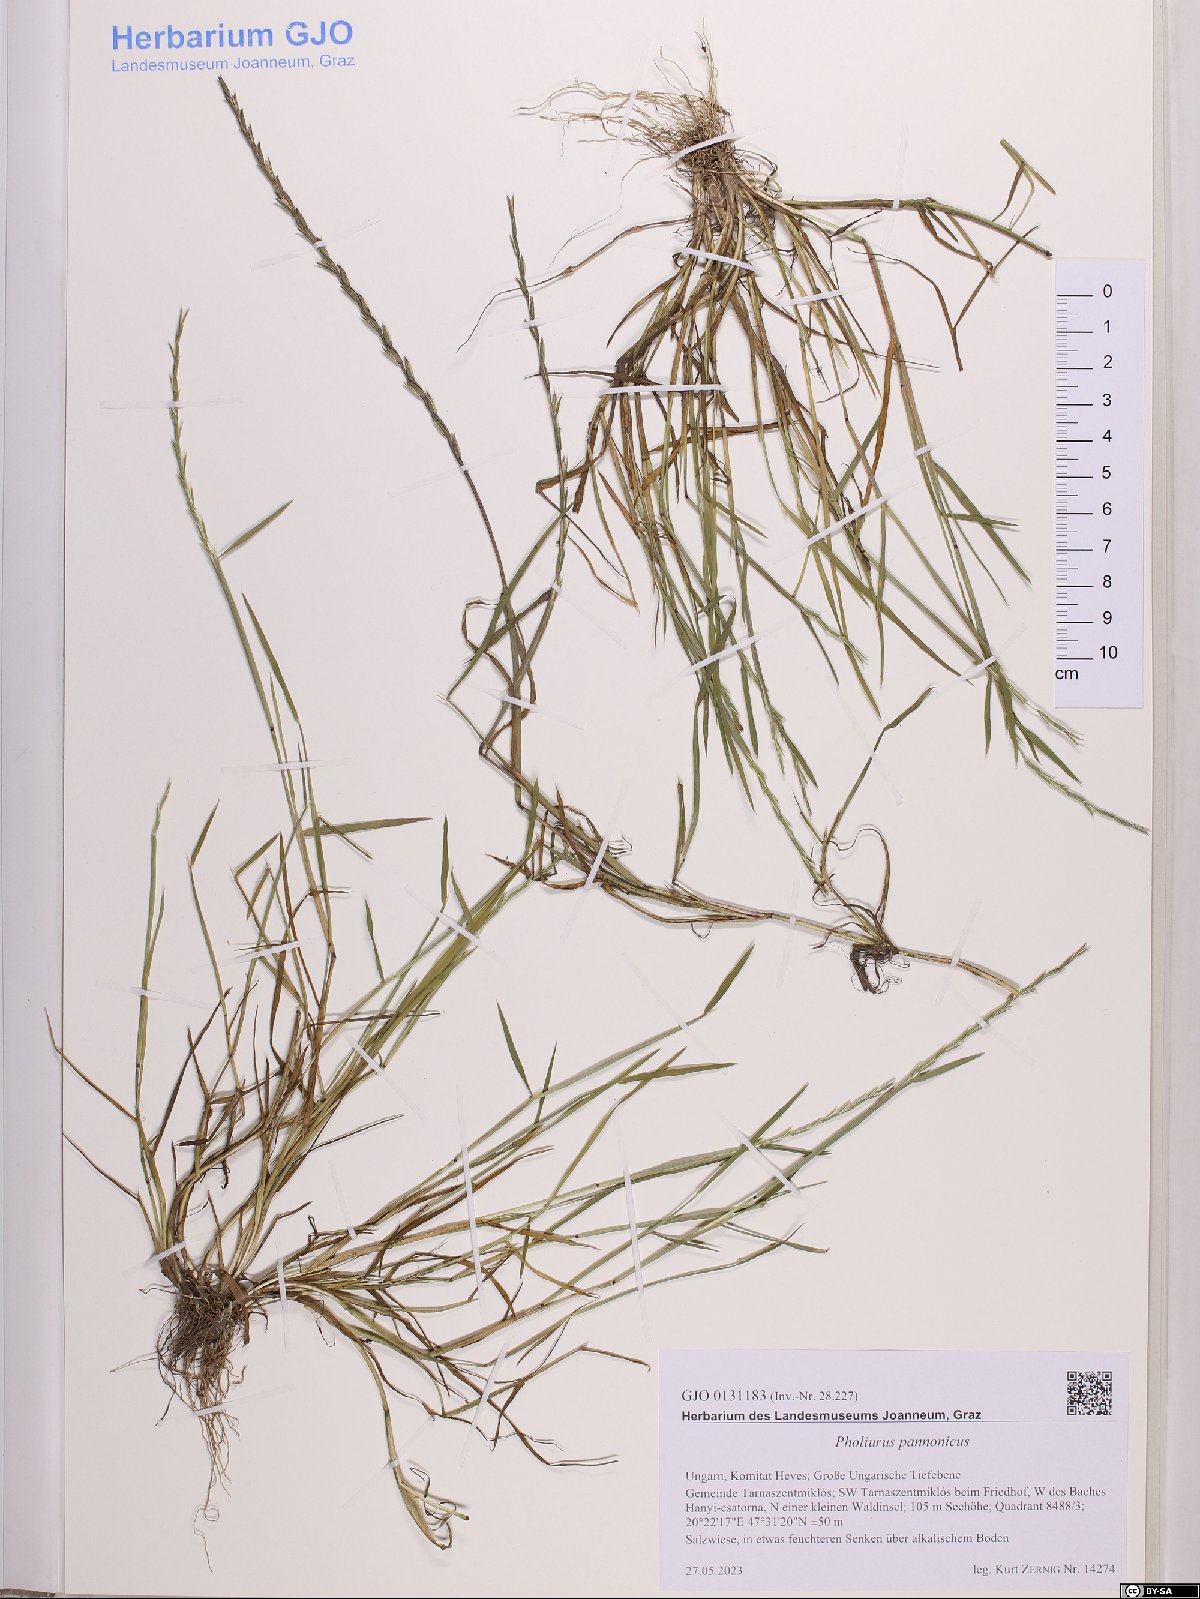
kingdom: Plantae
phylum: Tracheophyta
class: Liliopsida
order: Poales
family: Poaceae
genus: Pholiurus
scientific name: Pholiurus pannonicus
